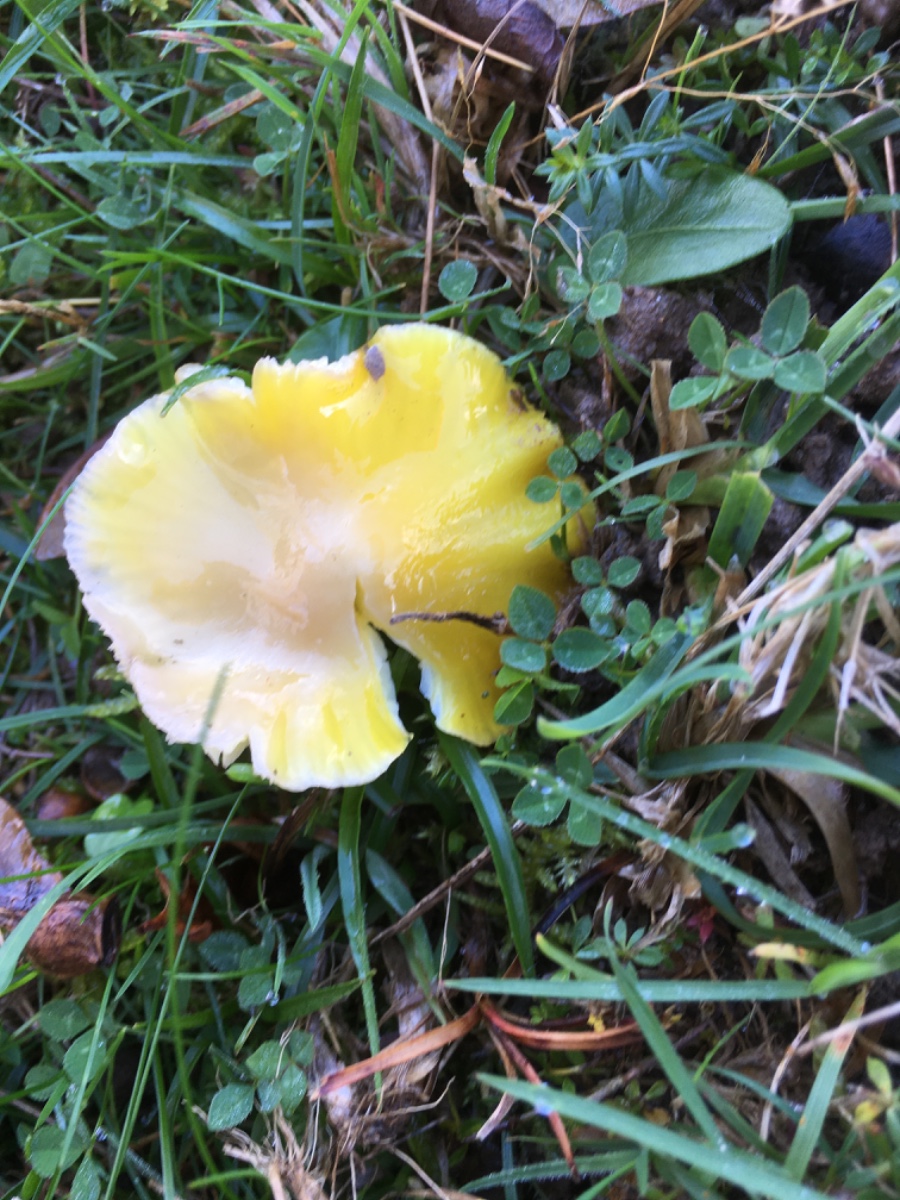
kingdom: Fungi
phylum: Basidiomycota
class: Agaricomycetes
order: Agaricales
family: Hygrophoraceae
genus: Hygrocybe
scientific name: Hygrocybe chlorophana
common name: gul vokshat
